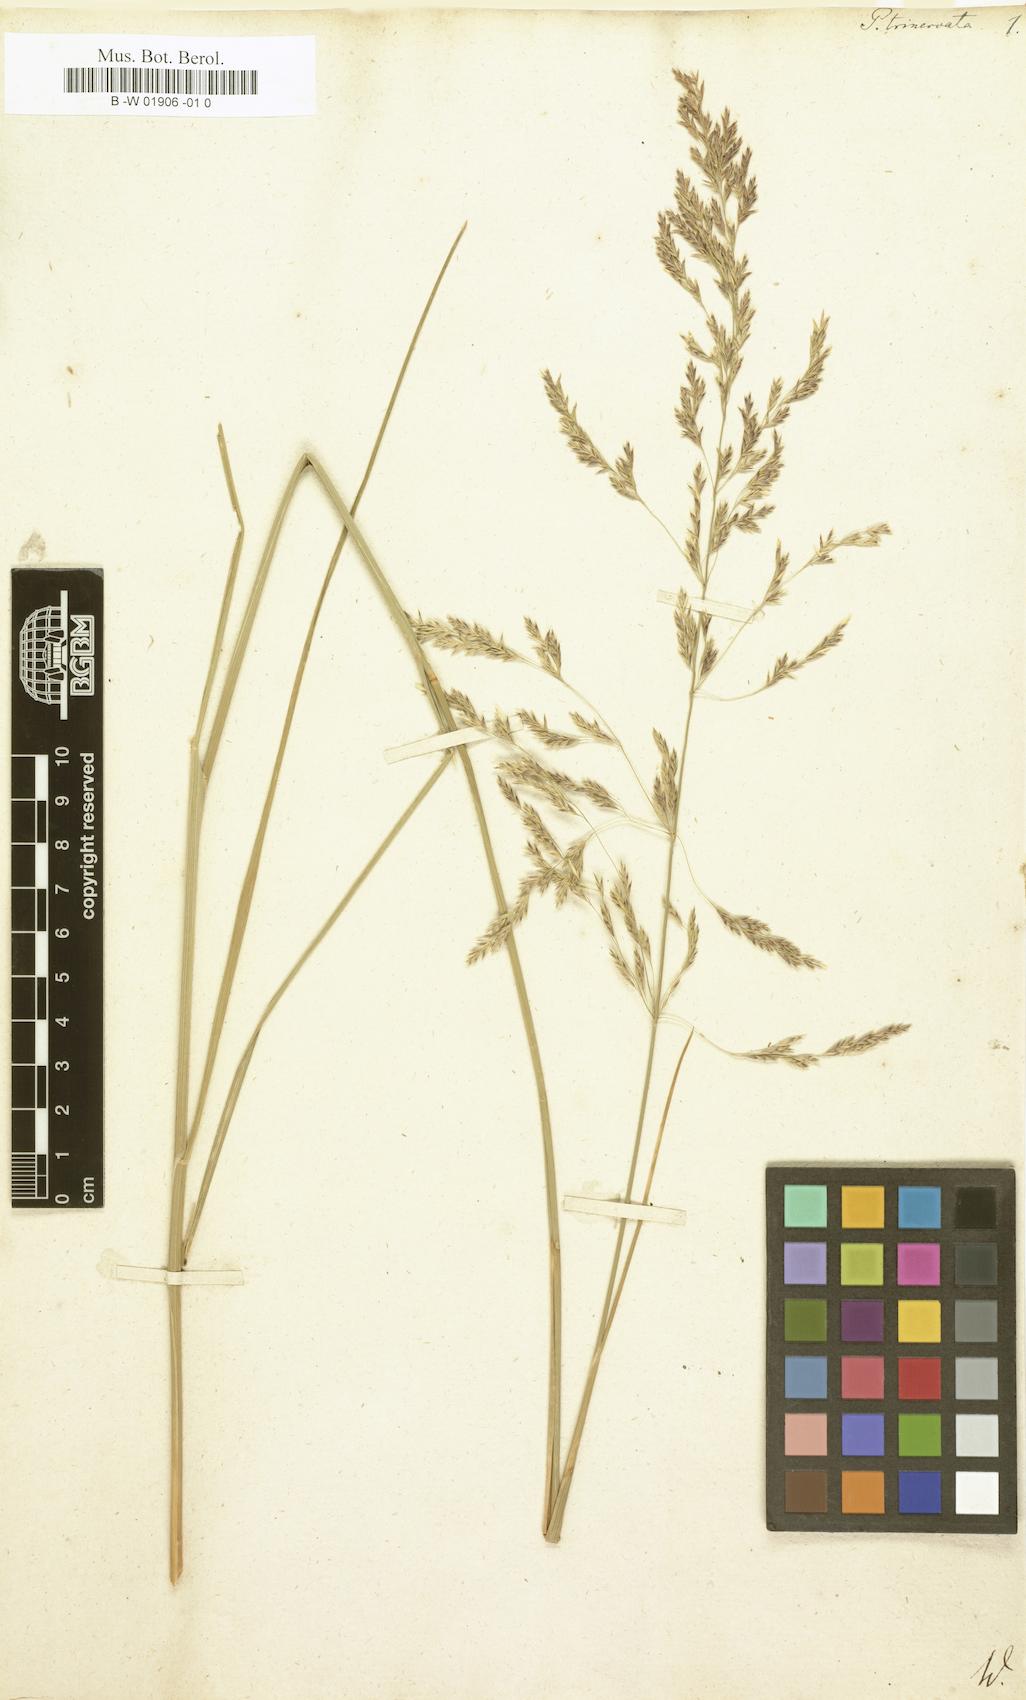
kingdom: Plantae
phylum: Tracheophyta
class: Liliopsida
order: Poales
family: Poaceae
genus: Festuca
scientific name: Festuca altissima
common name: Wood fescue
